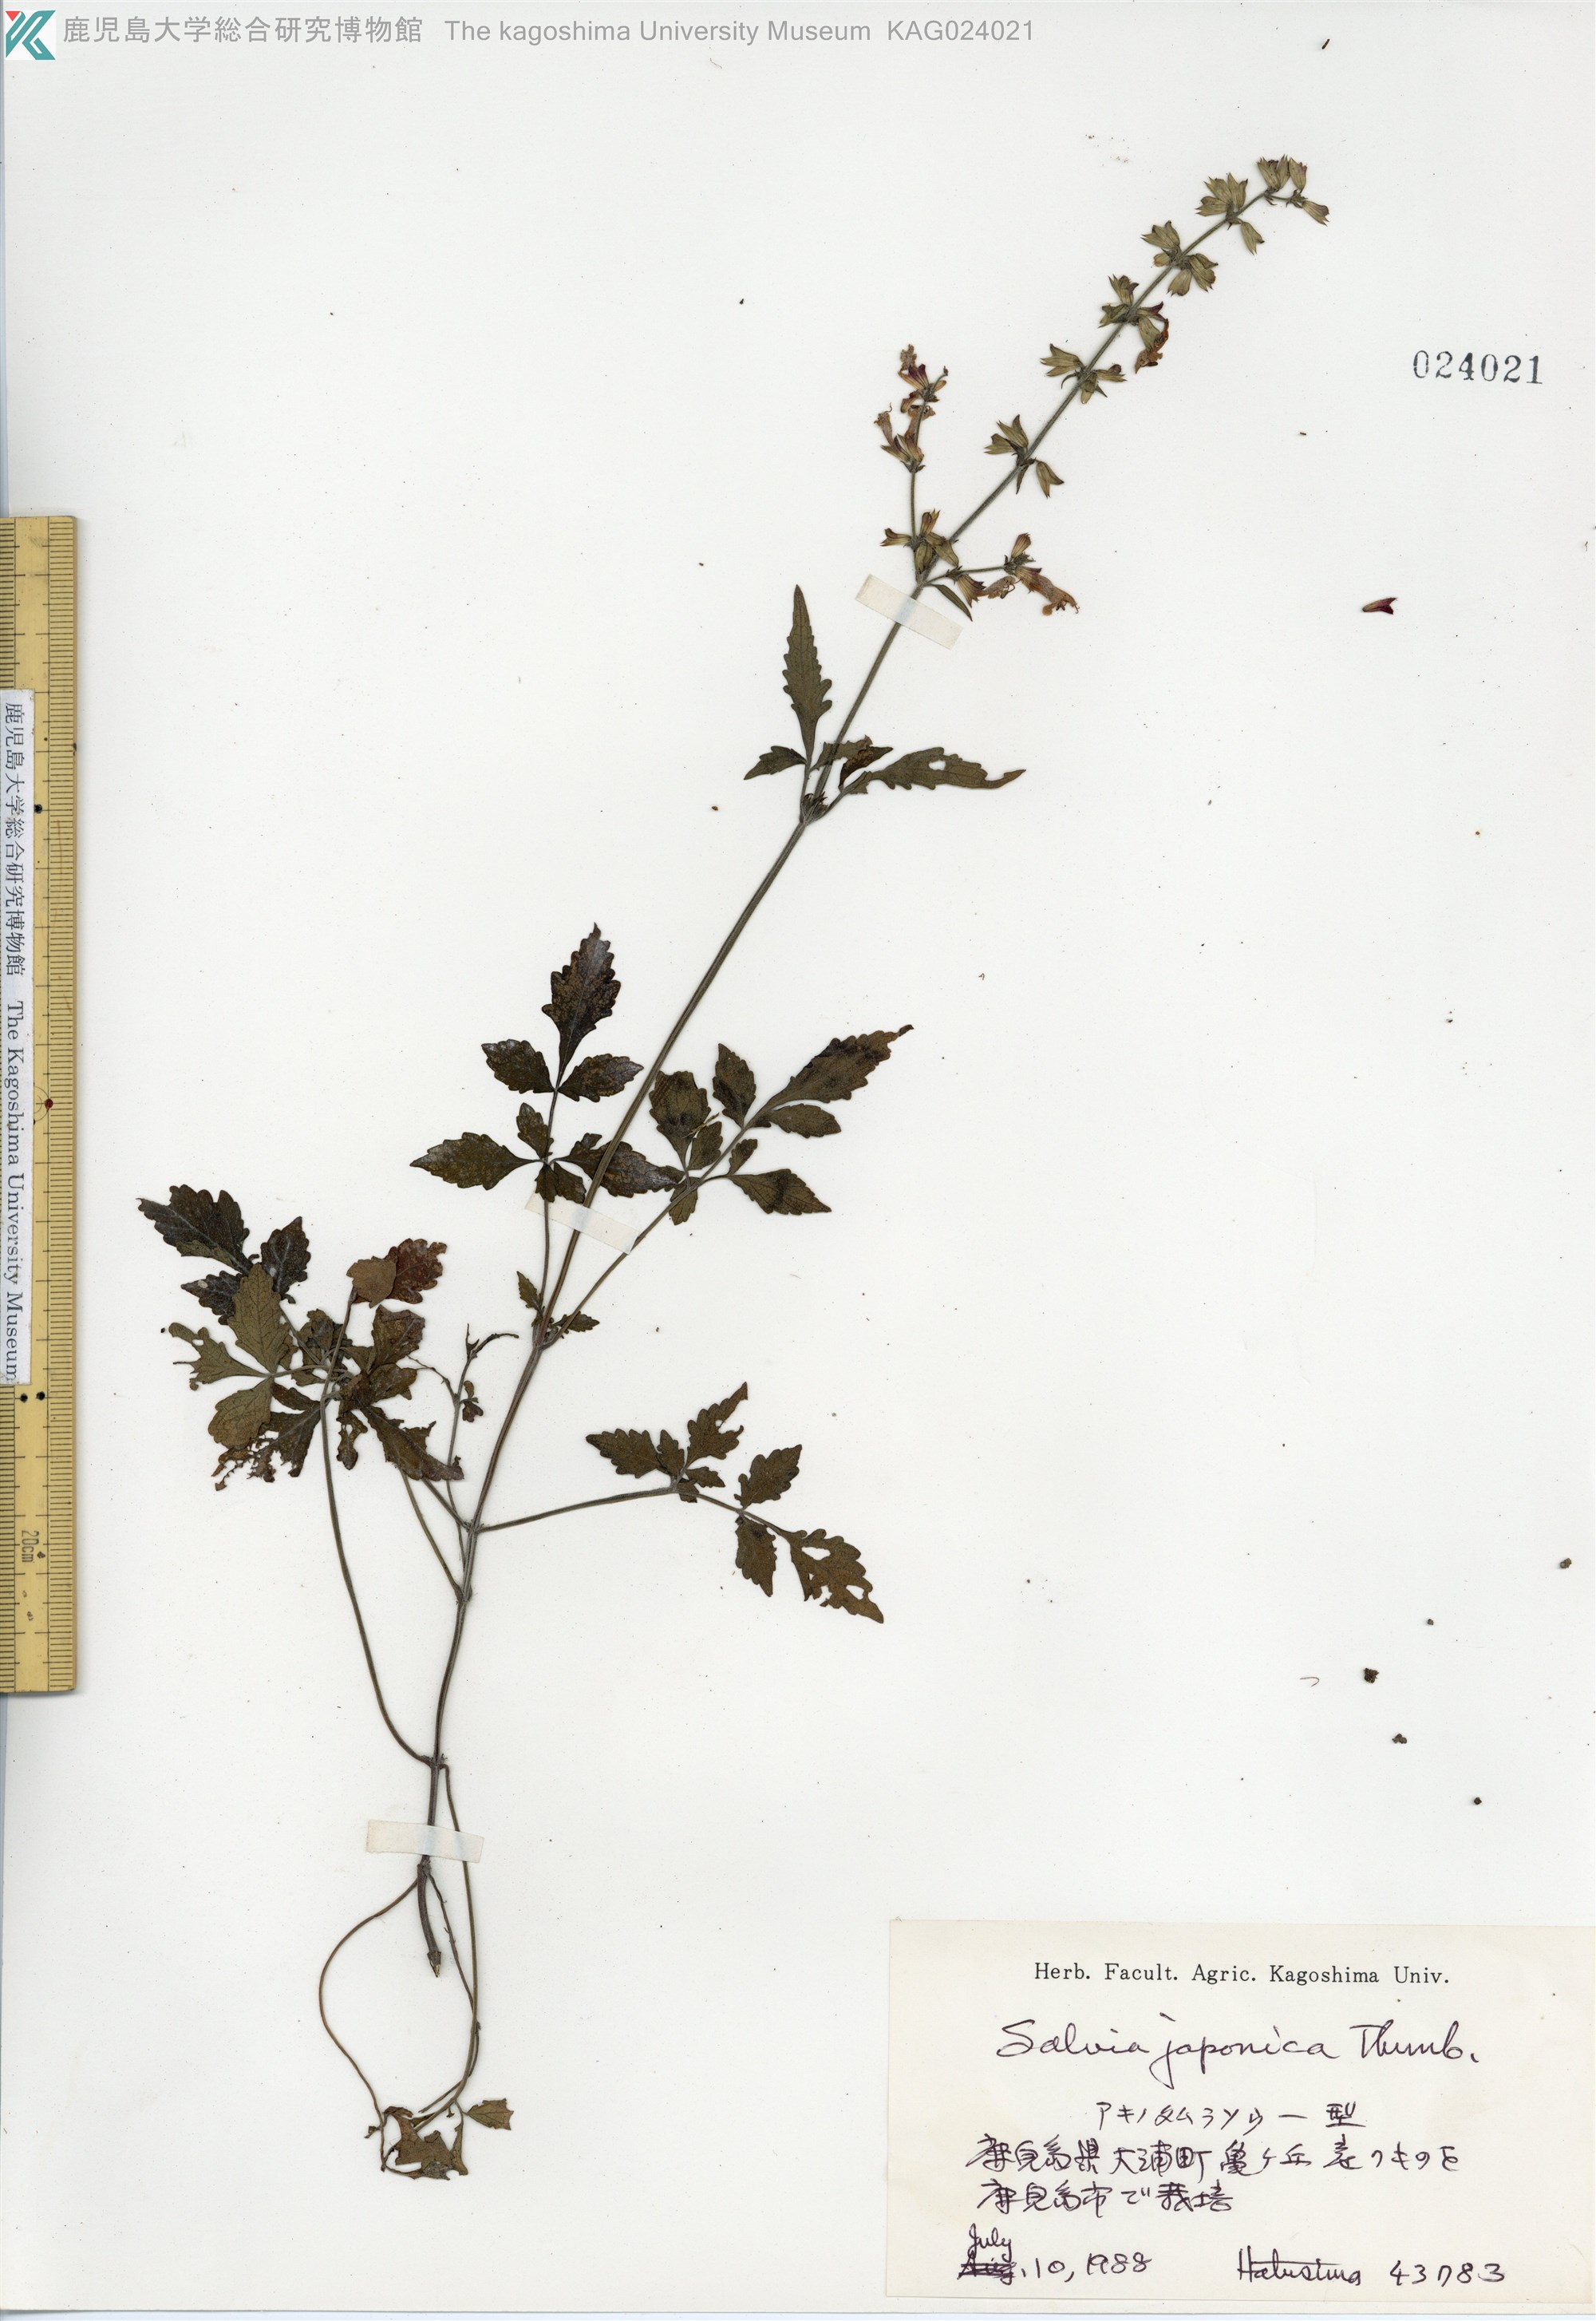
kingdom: Plantae
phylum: Tracheophyta
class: Magnoliopsida
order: Lamiales
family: Lamiaceae
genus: Salvia
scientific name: Salvia japonica
